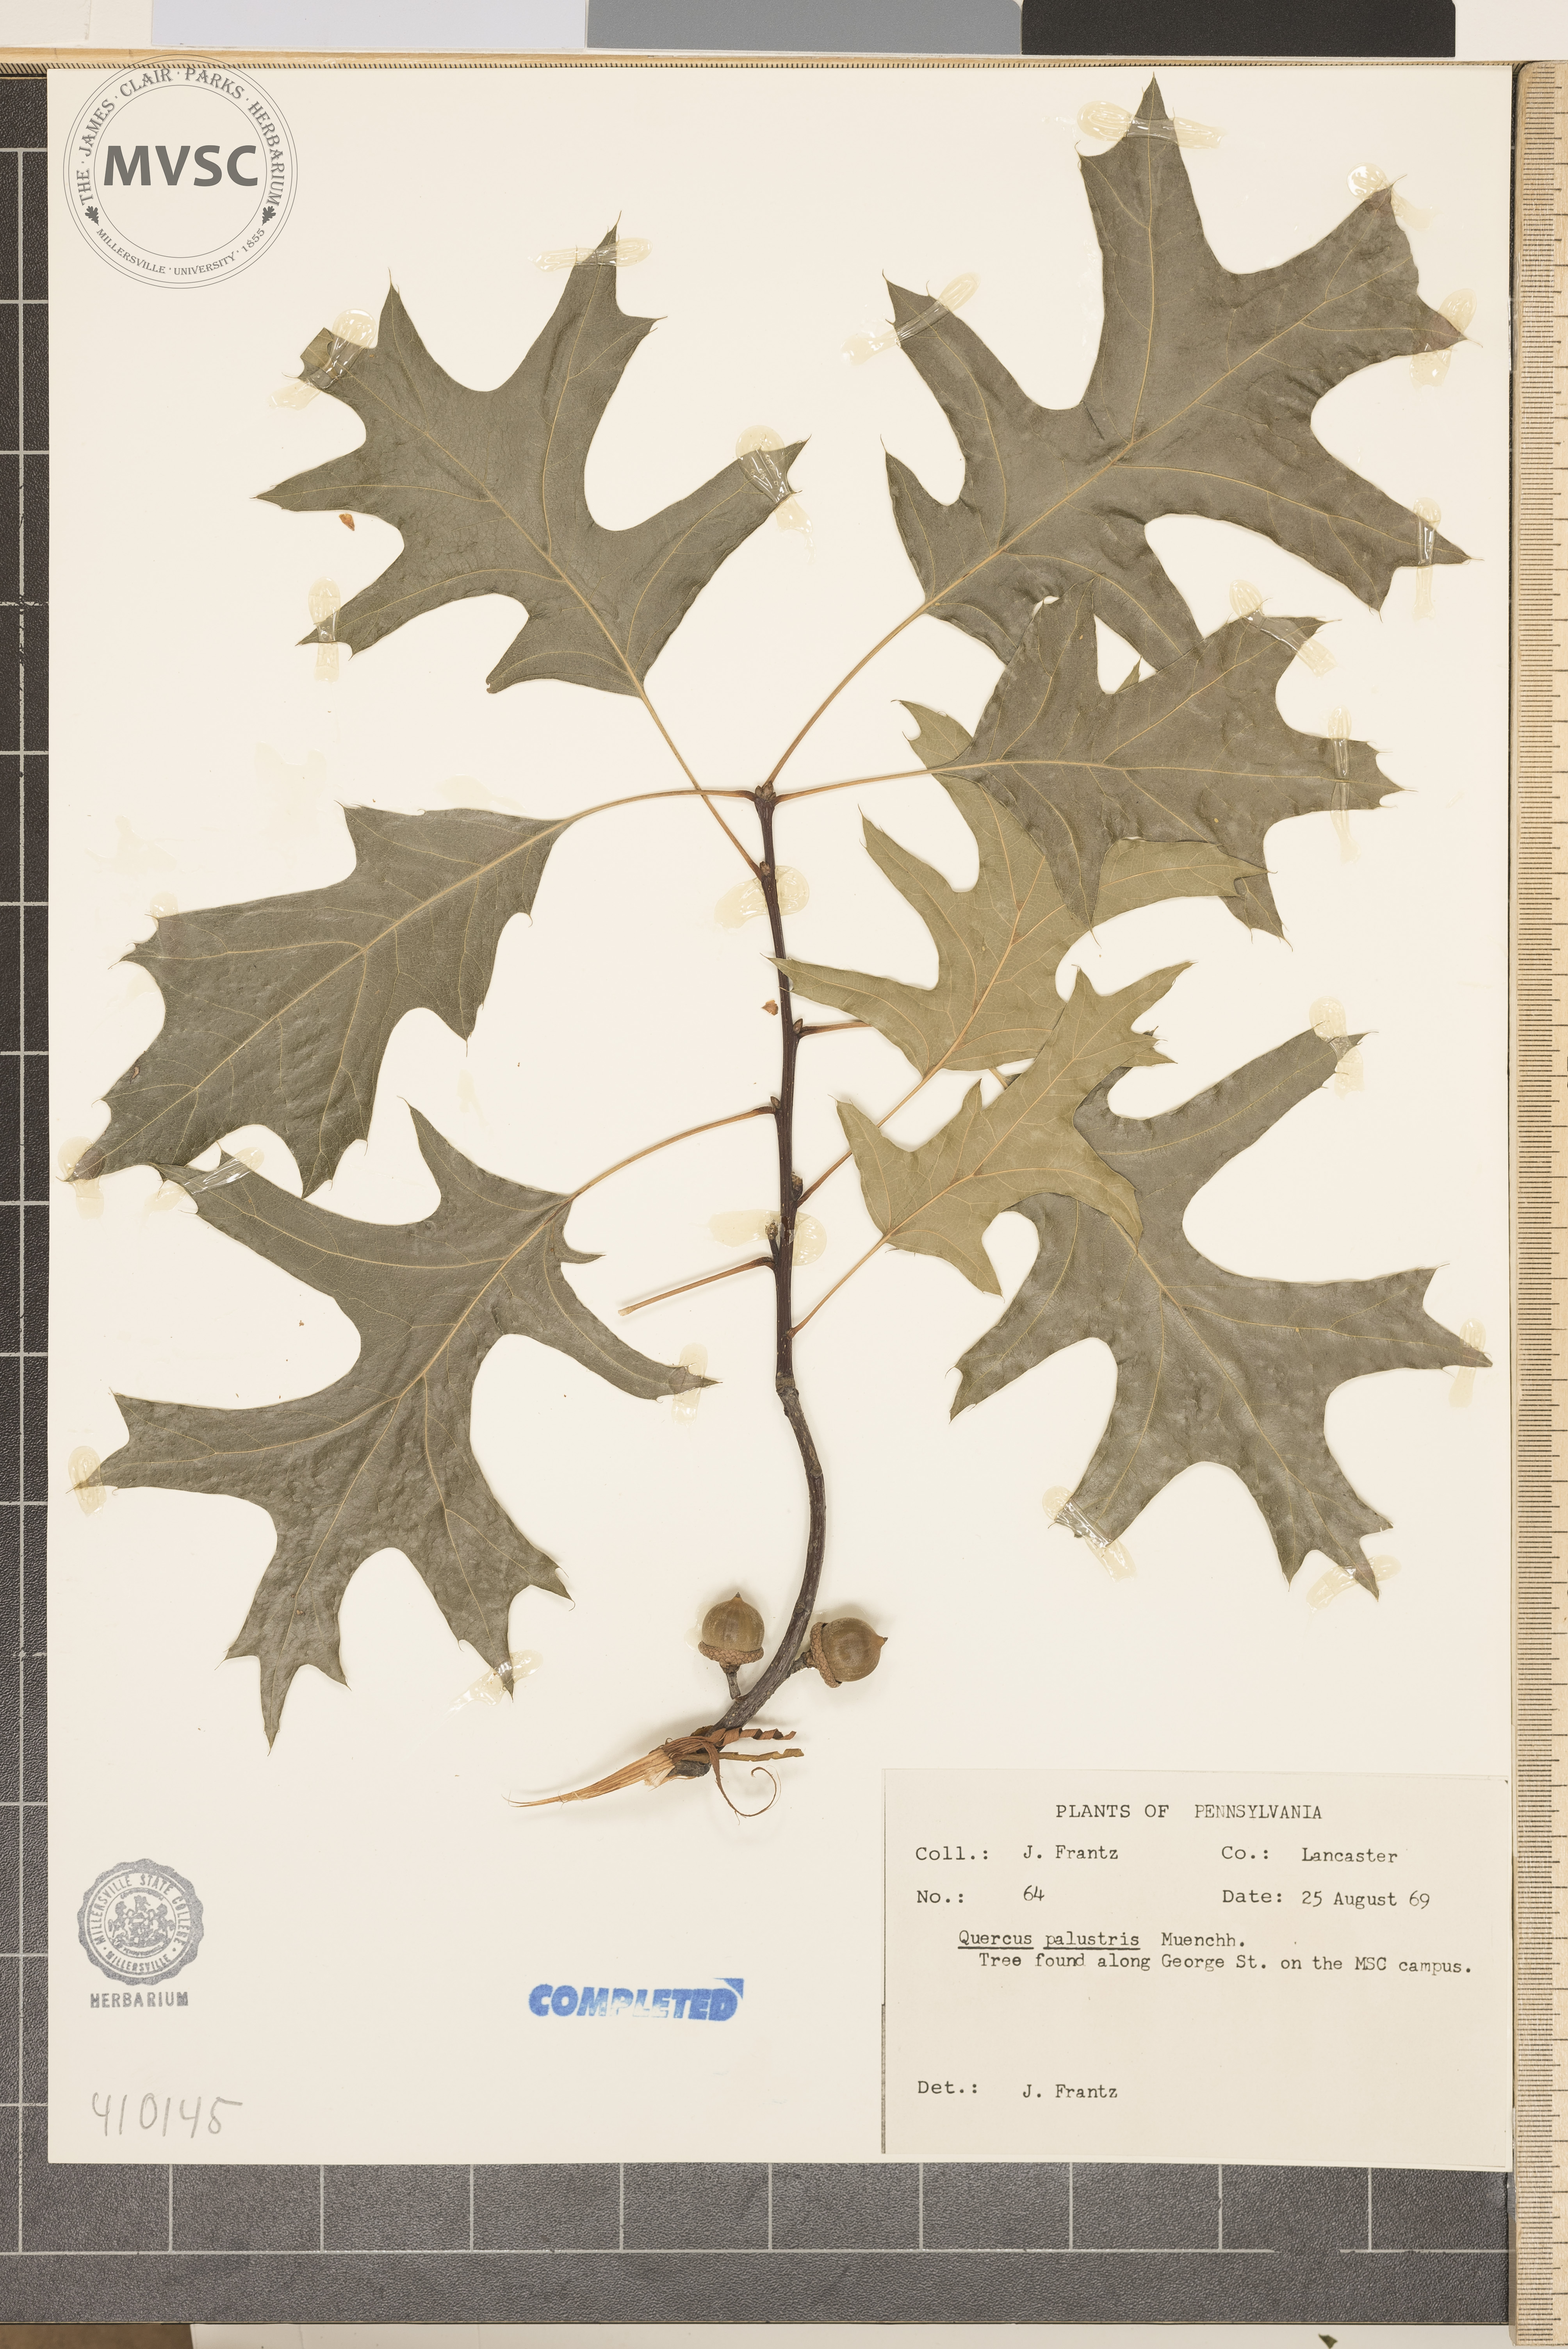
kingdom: Plantae
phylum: Tracheophyta
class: Magnoliopsida
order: Fagales
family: Fagaceae
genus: Quercus
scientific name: Quercus palustris
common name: Pin Oak
